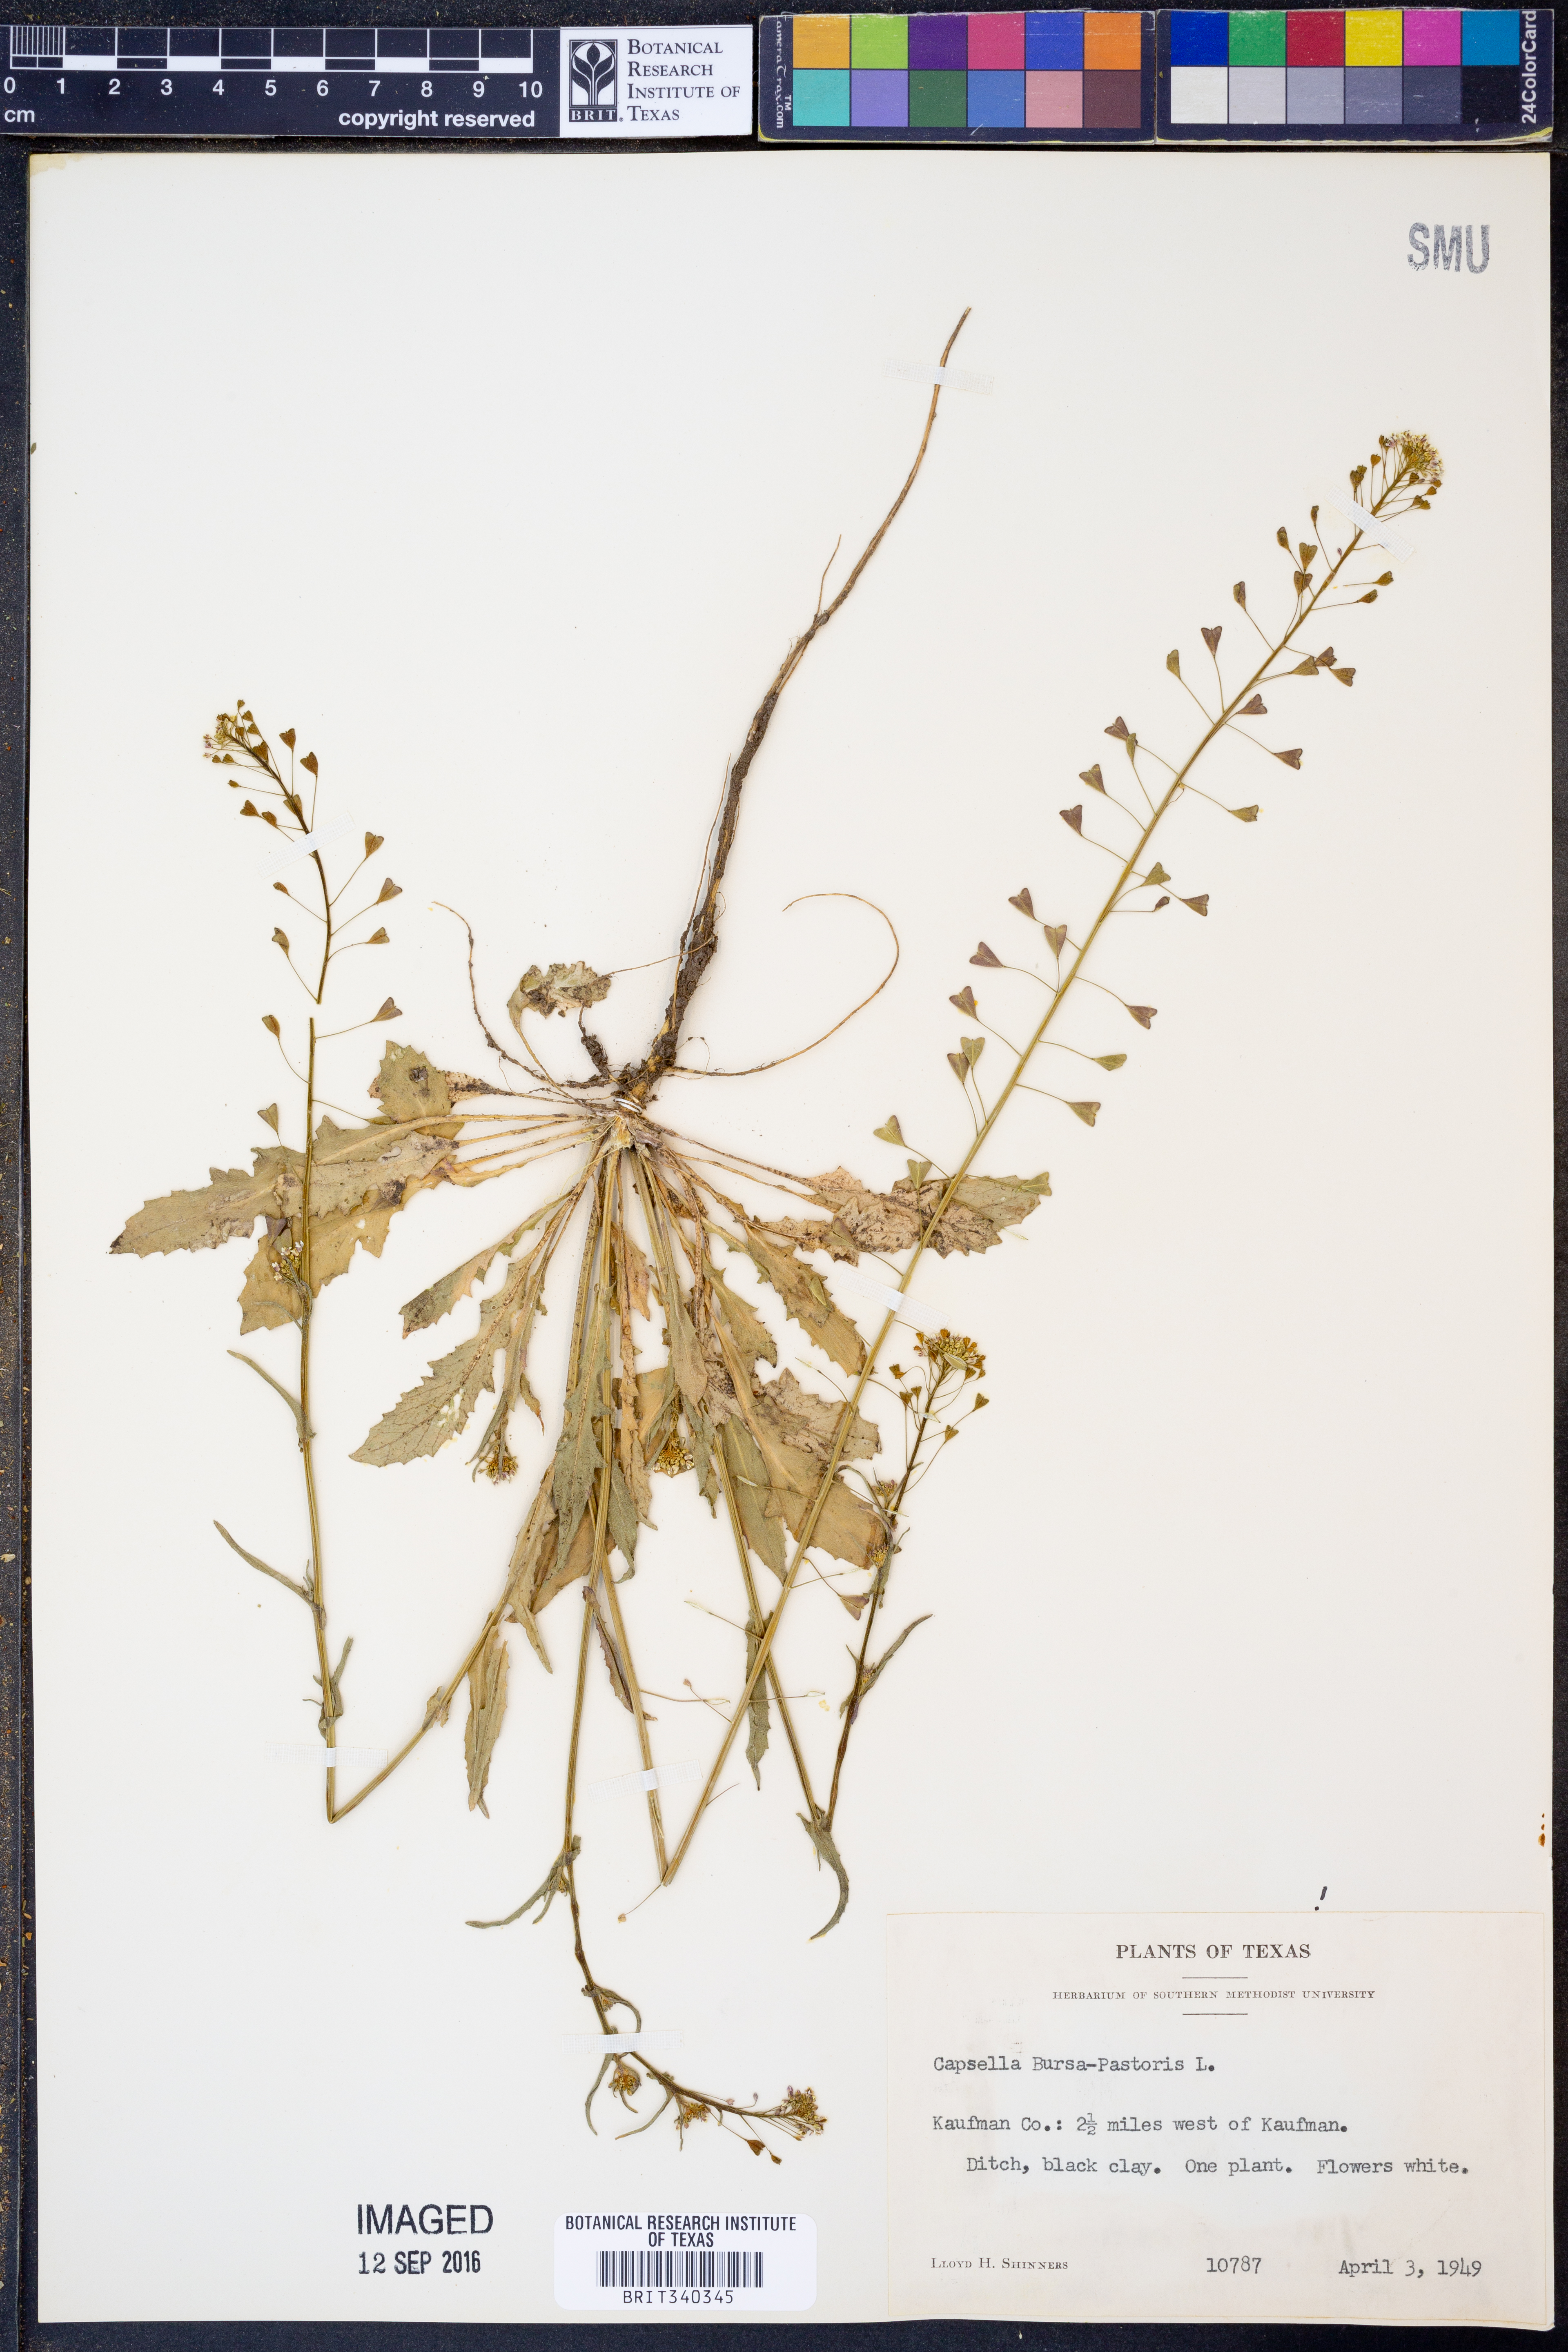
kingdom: Plantae
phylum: Tracheophyta
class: Magnoliopsida
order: Brassicales
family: Brassicaceae
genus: Capsella
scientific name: Capsella bursa-pastoris
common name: Shepherd's purse
